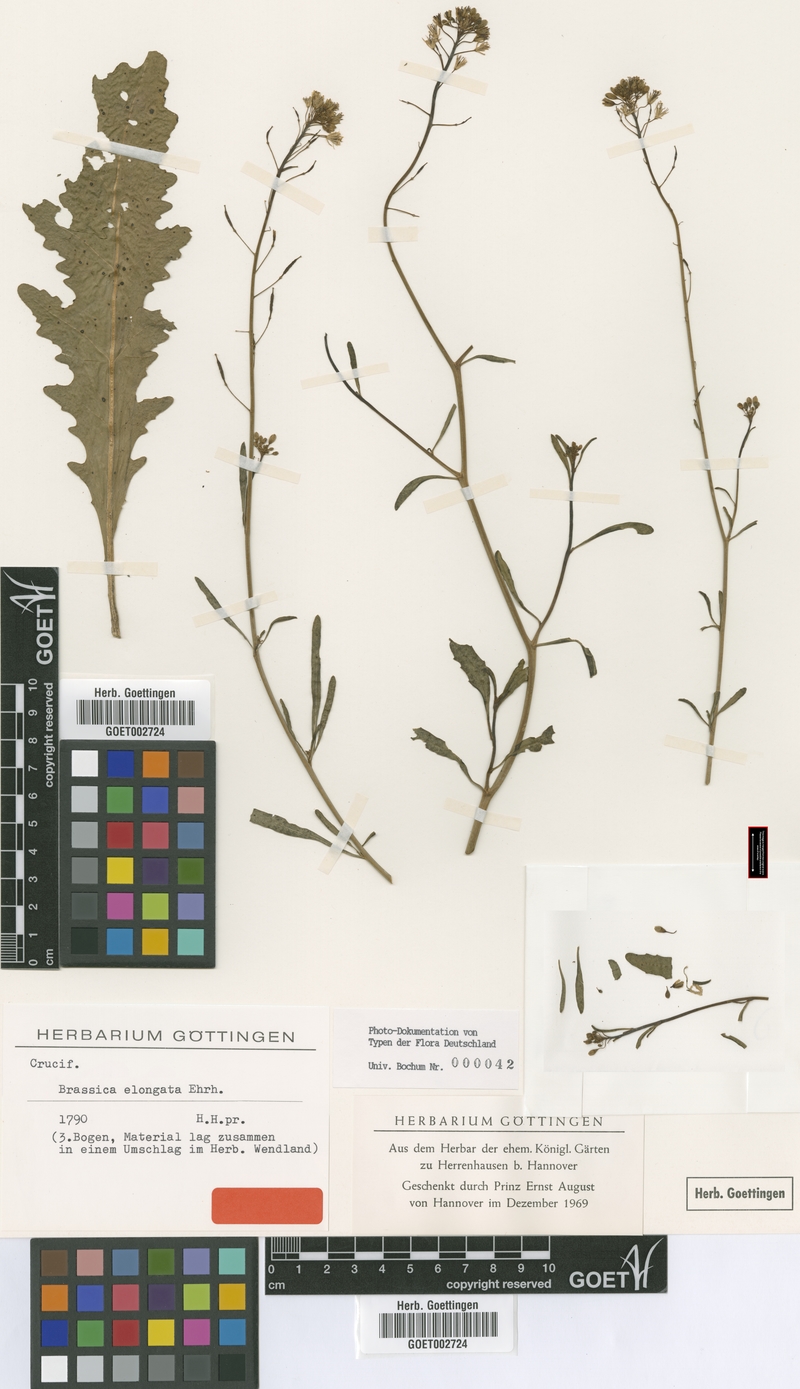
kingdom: Plantae
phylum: Tracheophyta
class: Magnoliopsida
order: Brassicales
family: Brassicaceae
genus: Brassica
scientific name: Brassica elongata
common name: Long-stalked rape
